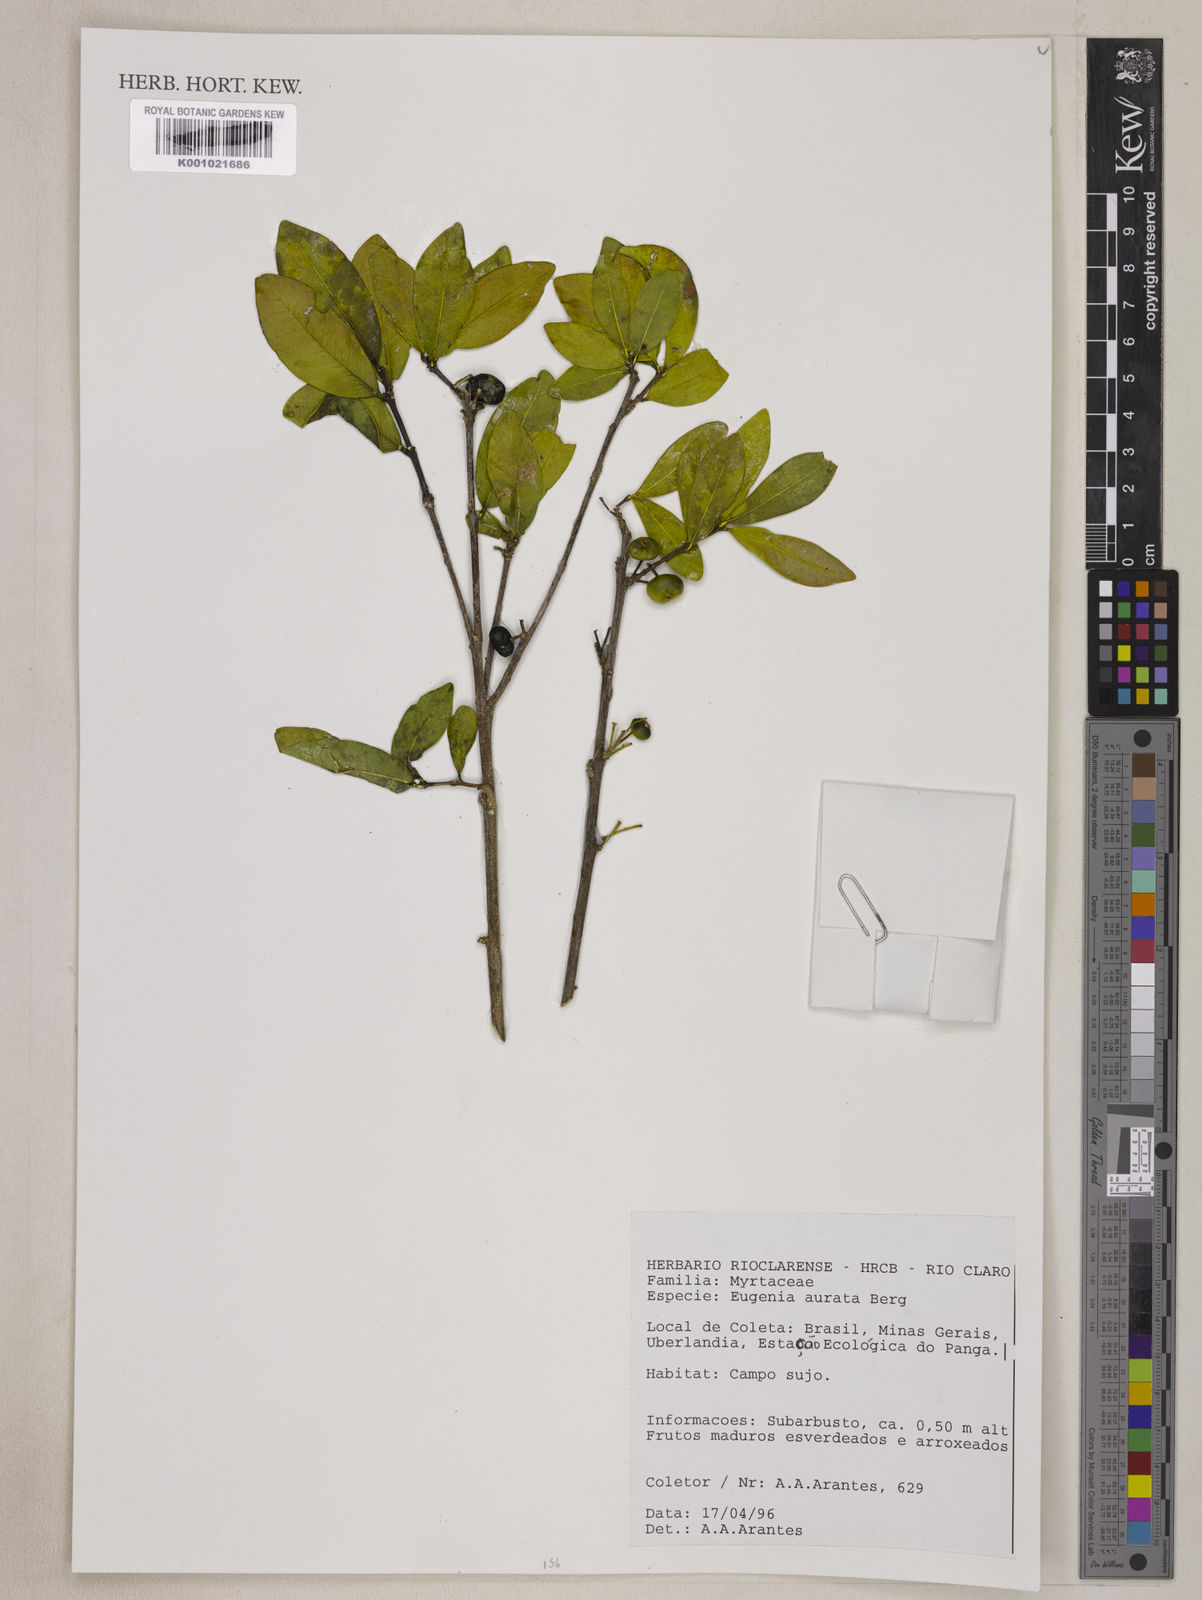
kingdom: Plantae
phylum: Tracheophyta
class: Magnoliopsida
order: Myrtales
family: Myrtaceae
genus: Eugenia
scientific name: Eugenia aurata
